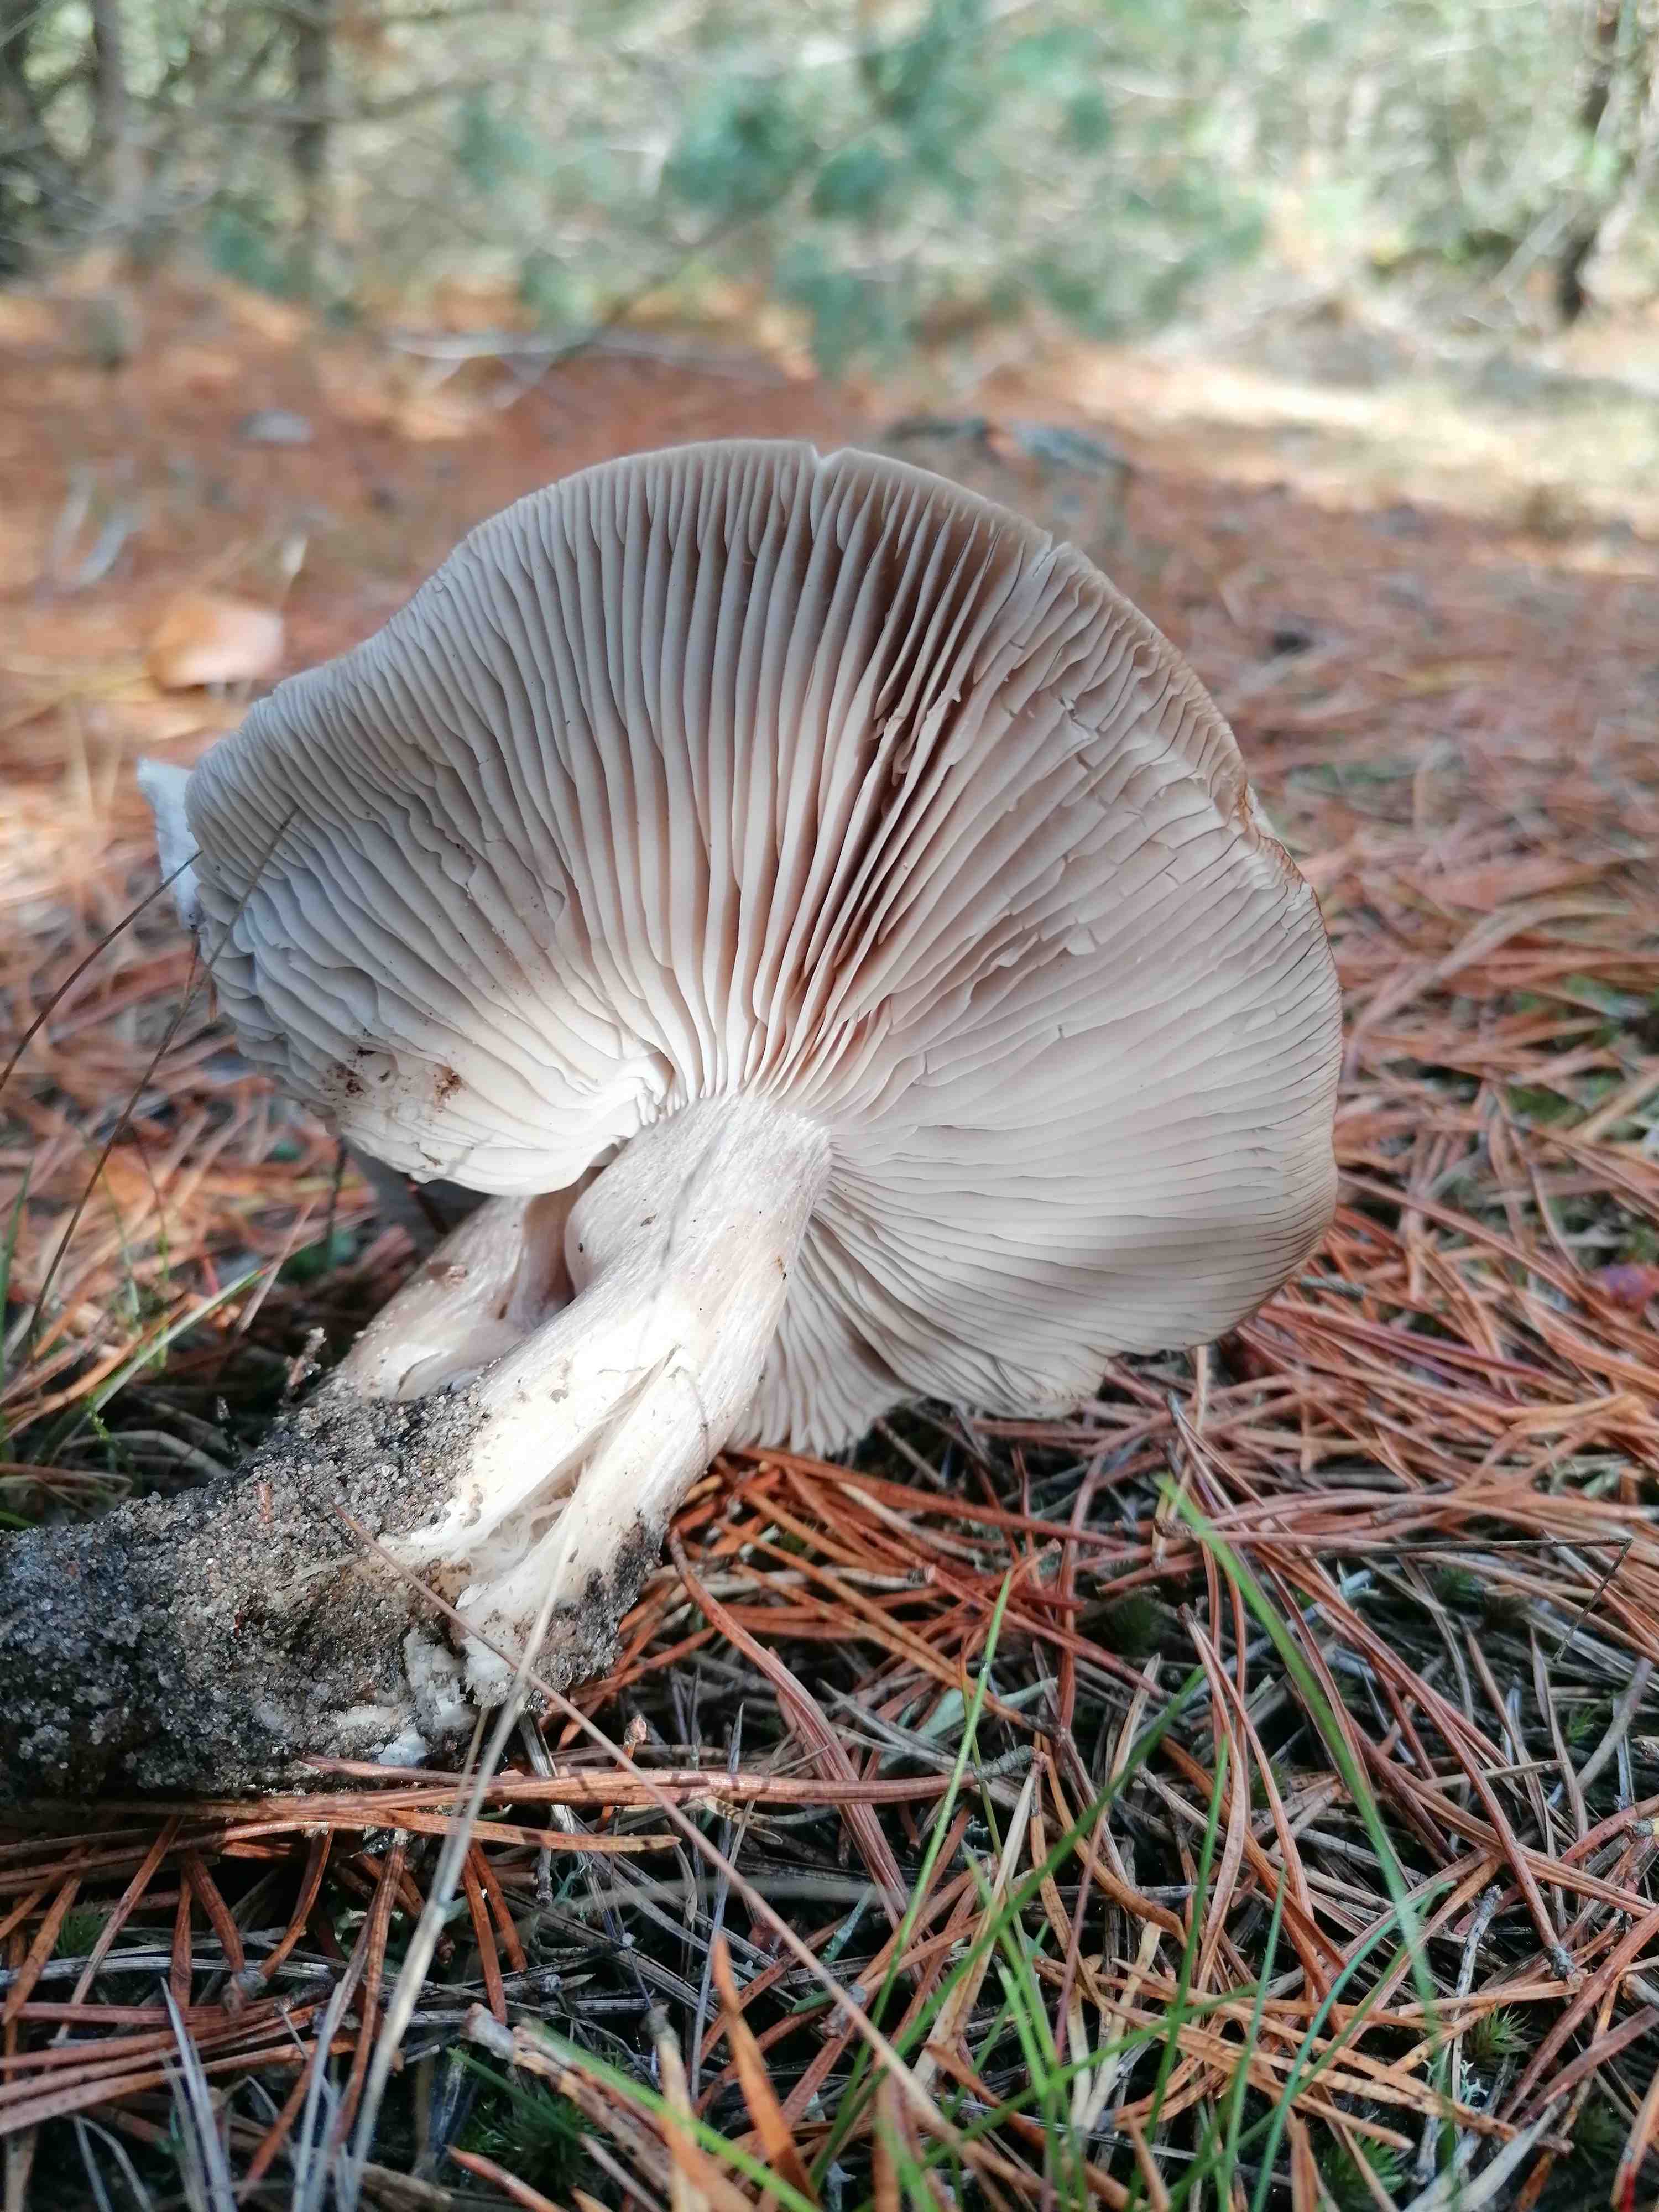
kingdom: Fungi
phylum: Basidiomycota
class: Agaricomycetes
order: Agaricales
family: Tricholomataceae
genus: Tricholoma
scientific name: Tricholoma sudum
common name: tør ridderhat
